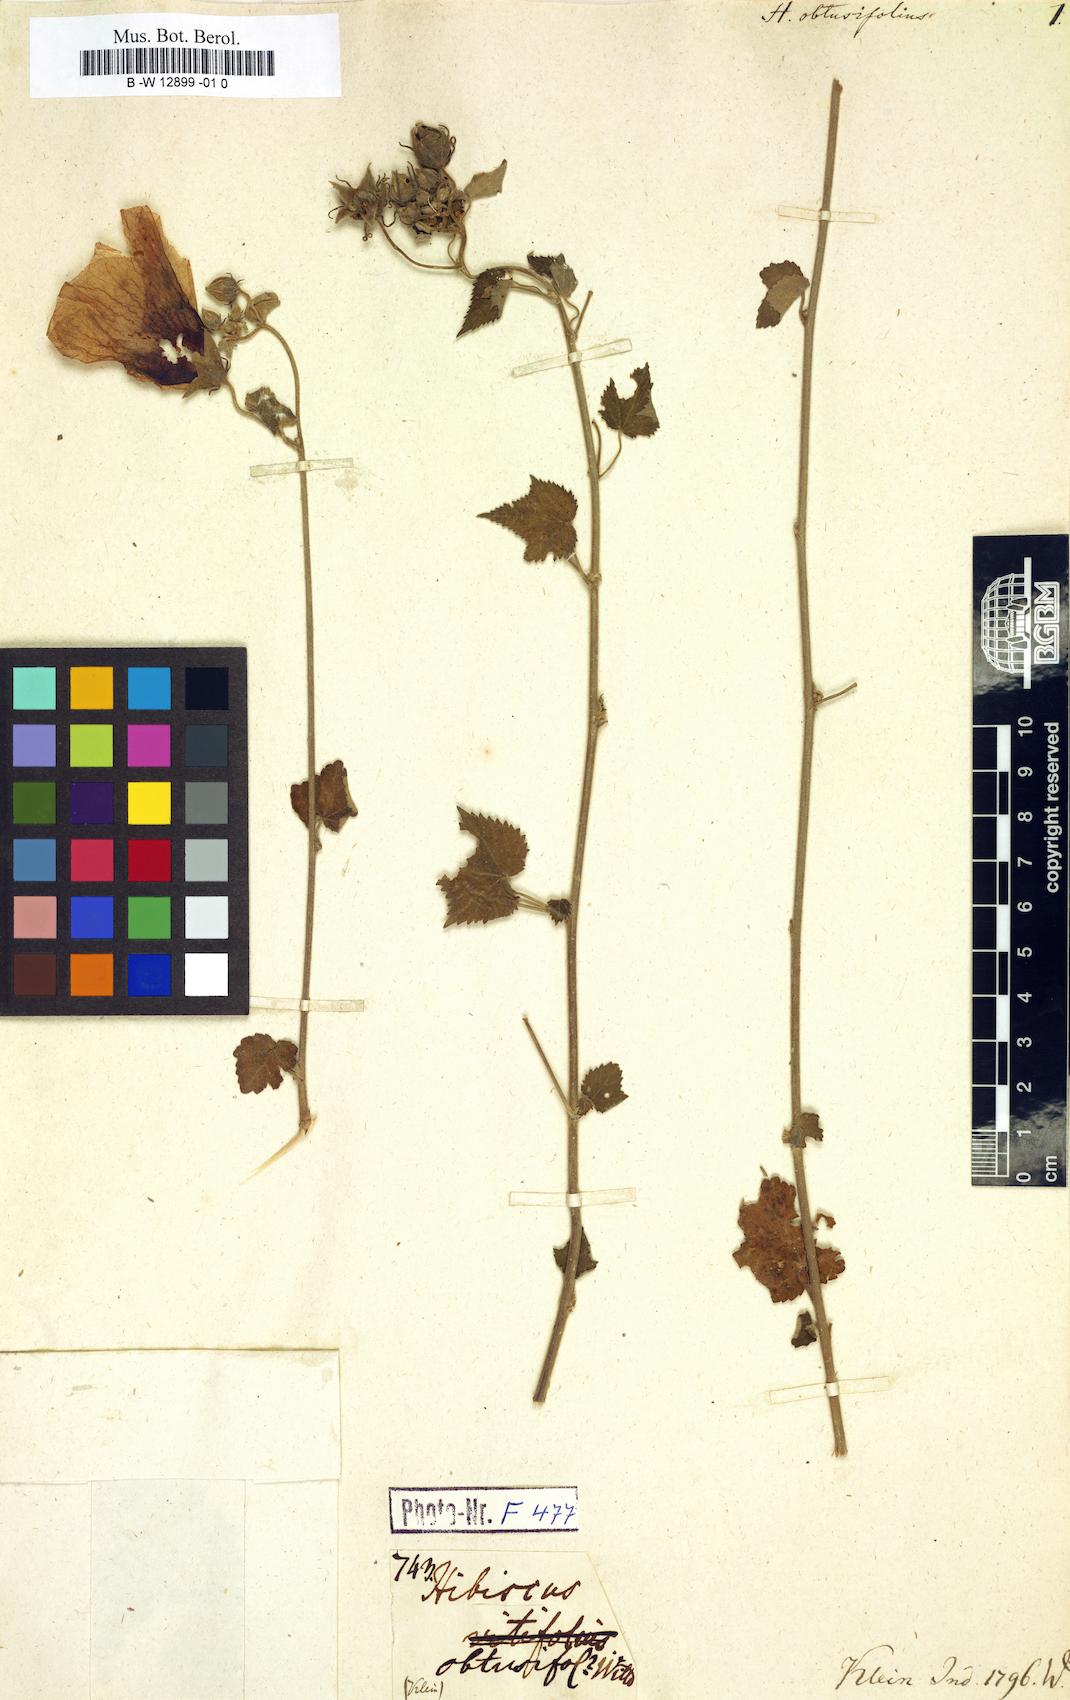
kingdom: Plantae
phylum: Tracheophyta
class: Magnoliopsida
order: Malvales
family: Malvaceae
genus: Hibiscus
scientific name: Hibiscus vitifolius
